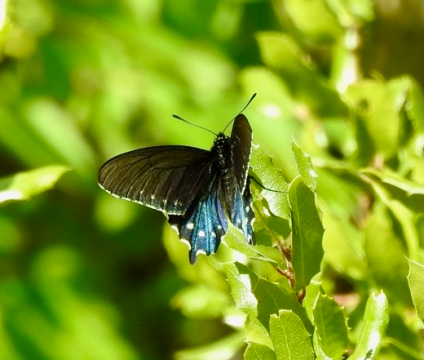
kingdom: Animalia
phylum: Arthropoda
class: Insecta
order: Lepidoptera
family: Papilionidae
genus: Battus
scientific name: Battus philenor
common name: Pipevine Swallowtail
